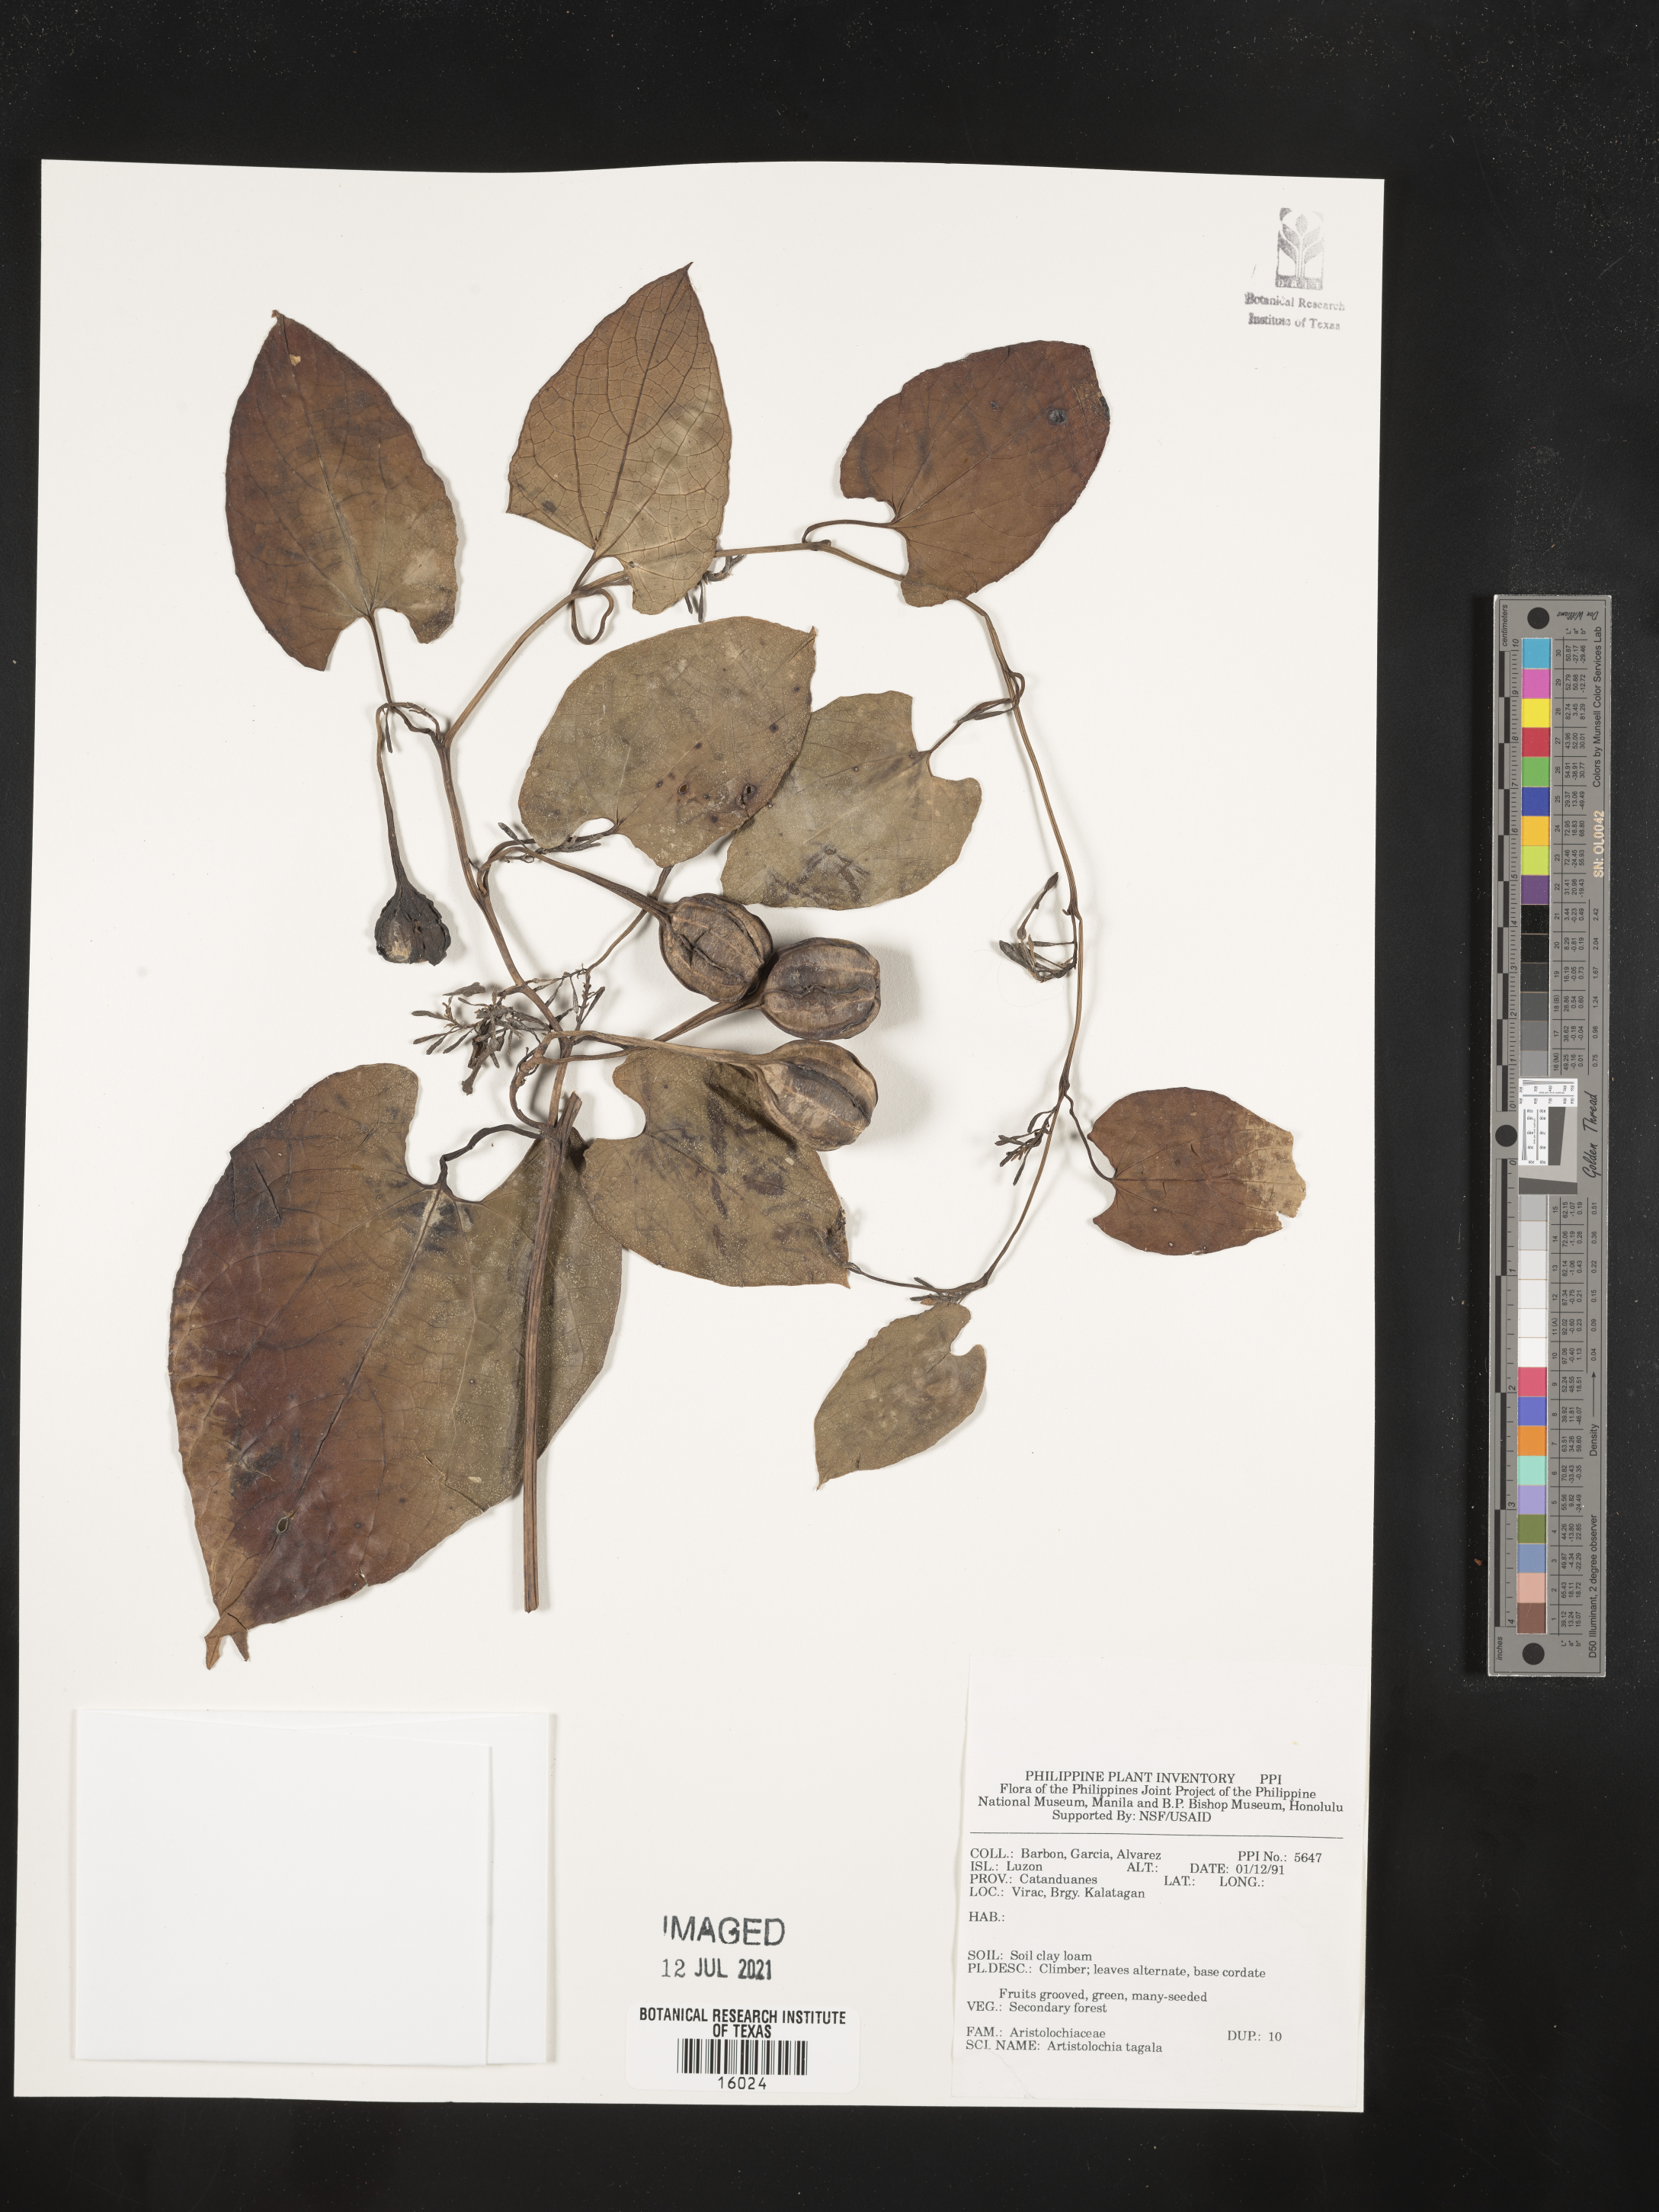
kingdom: Plantae
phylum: Tracheophyta
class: Magnoliopsida
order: Piperales
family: Aristolochiaceae
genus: Aristolochia
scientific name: Aristolochia acuminata
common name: Indian birthwort
